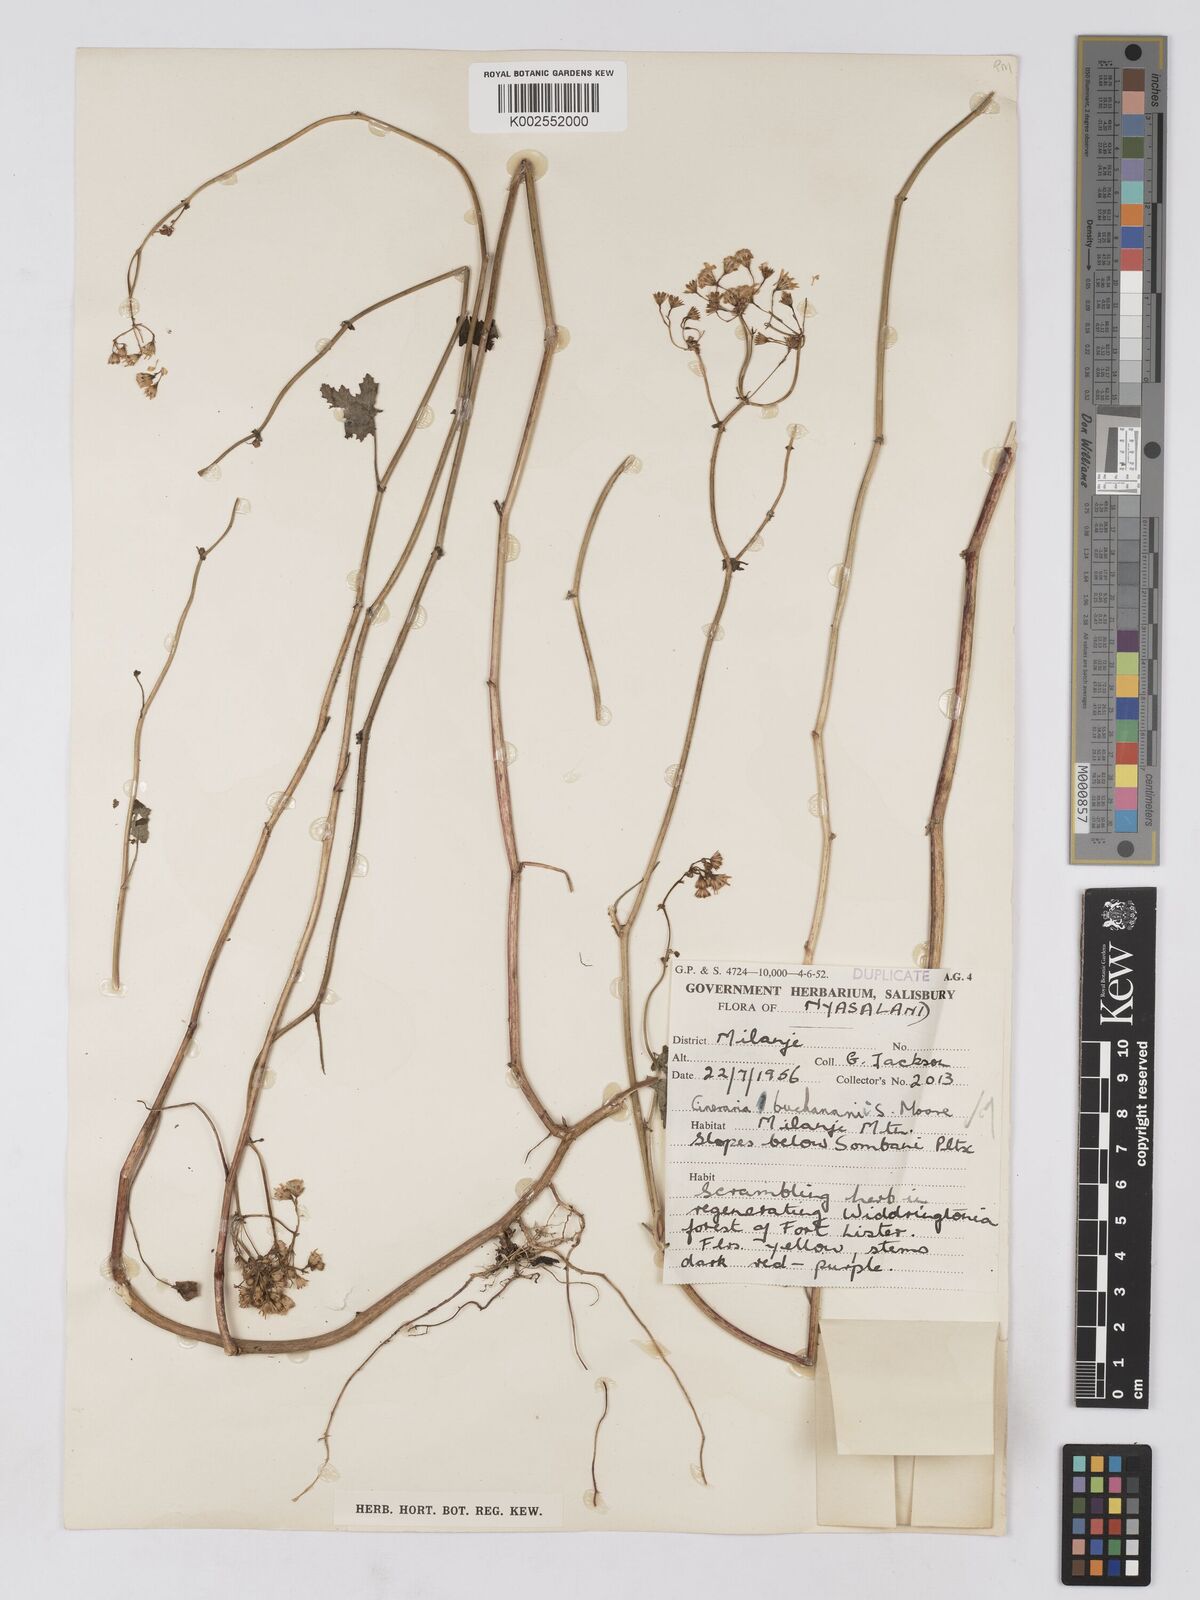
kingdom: Plantae
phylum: Tracheophyta
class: Magnoliopsida
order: Asterales
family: Asteraceae
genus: Cineraria
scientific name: Cineraria deltoidea
